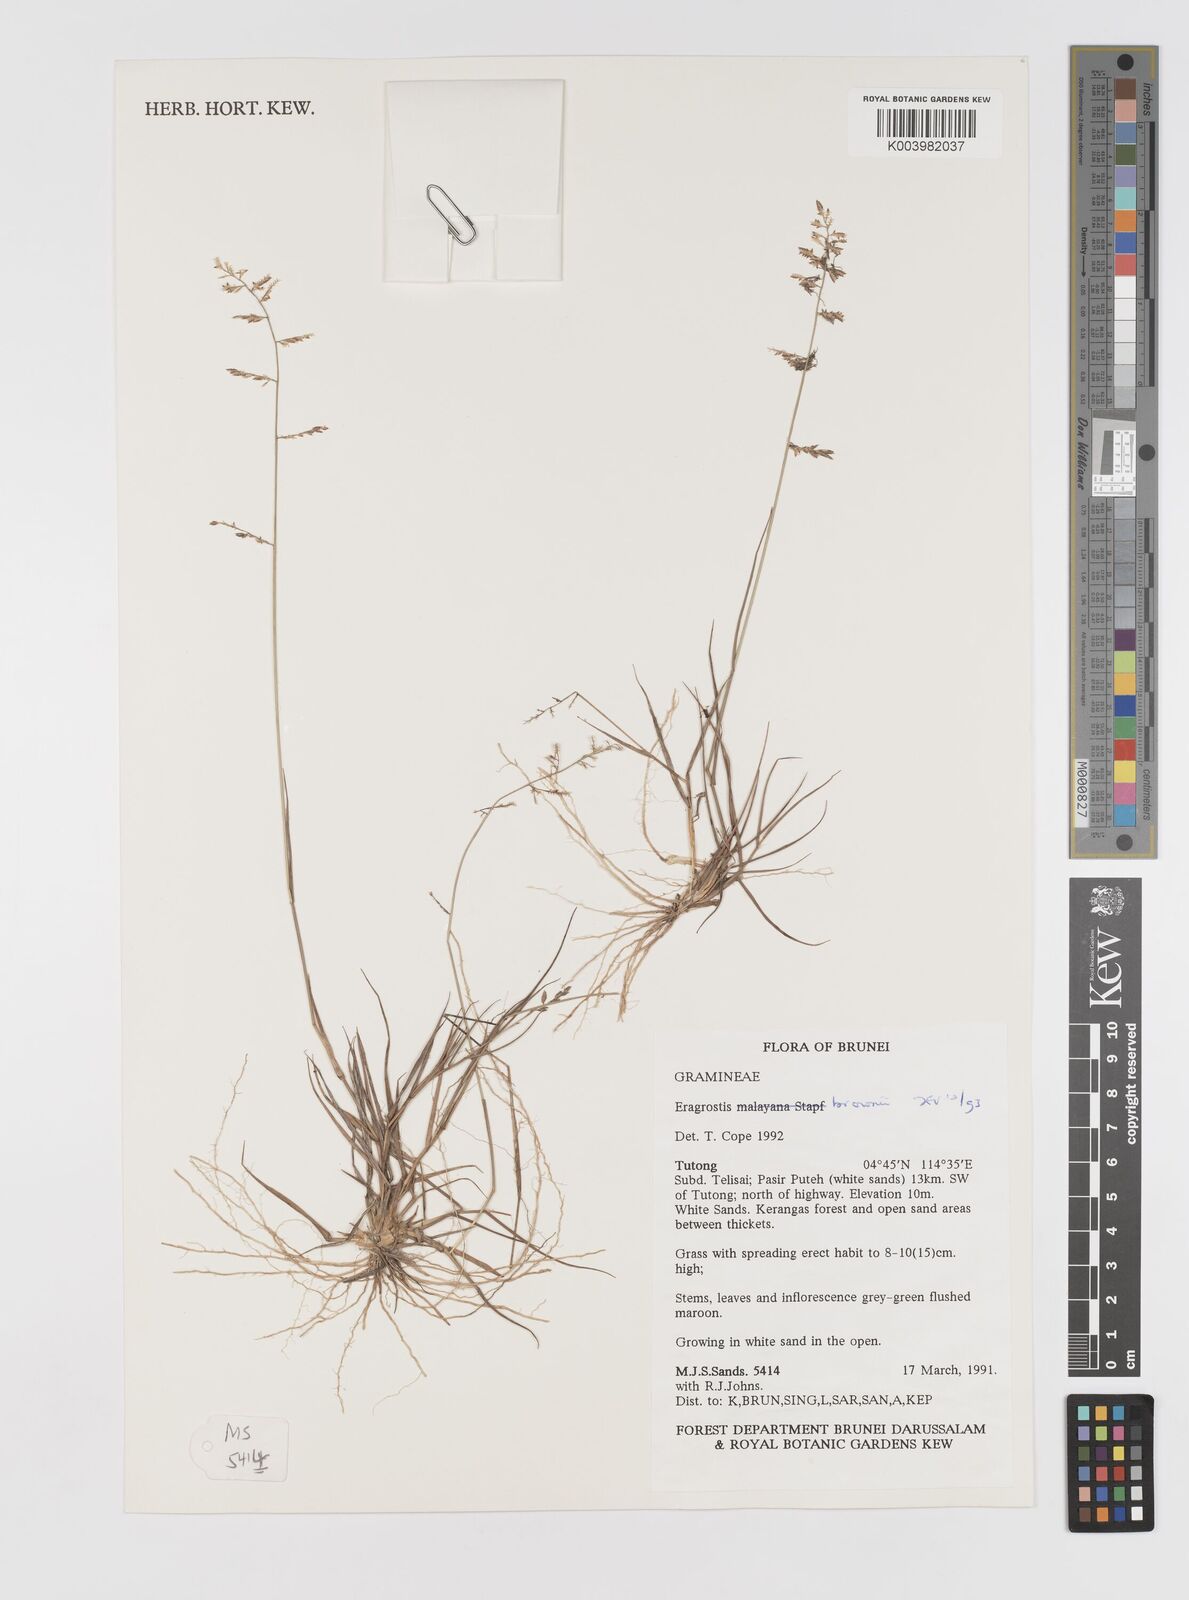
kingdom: Plantae
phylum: Tracheophyta
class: Liliopsida
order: Poales
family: Poaceae
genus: Eragrostis
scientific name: Eragrostis brownii
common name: Lovegrass
